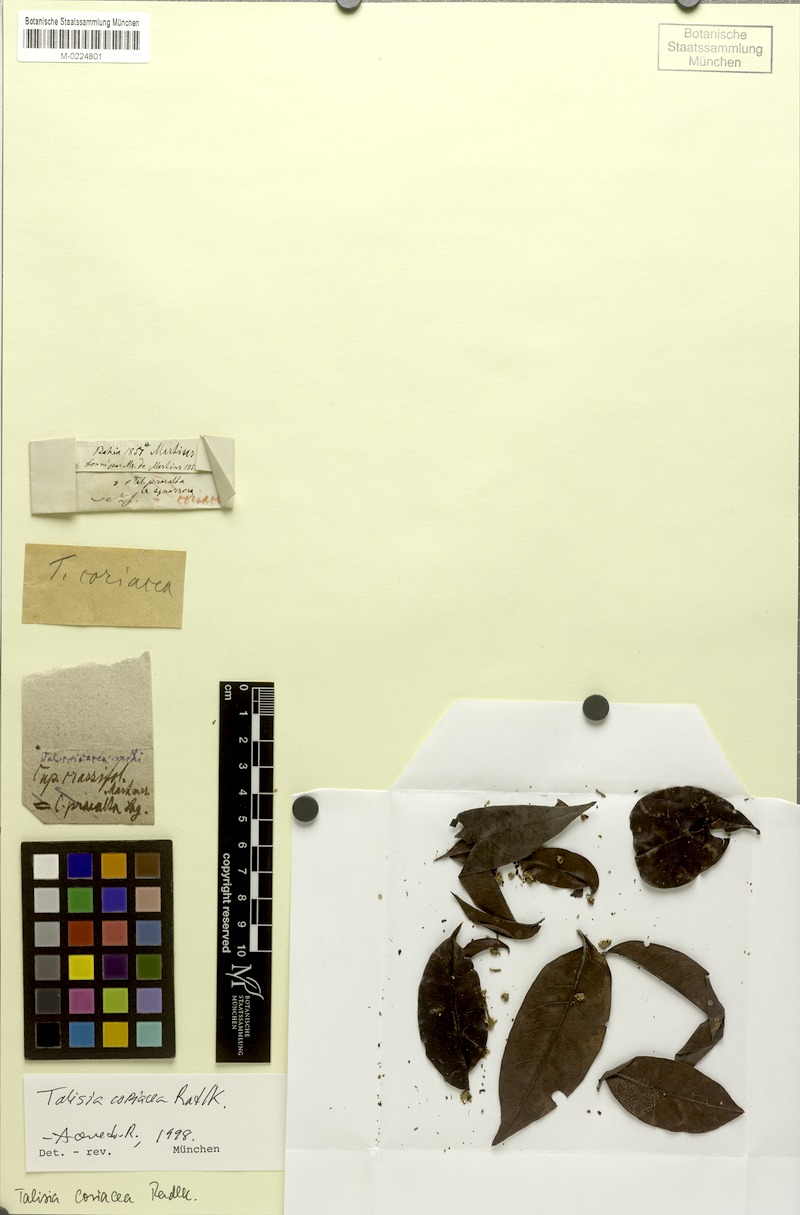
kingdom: Plantae
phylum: Tracheophyta
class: Magnoliopsida
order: Sapindales
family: Sapindaceae
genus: Talisia
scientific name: Talisia coriacea
